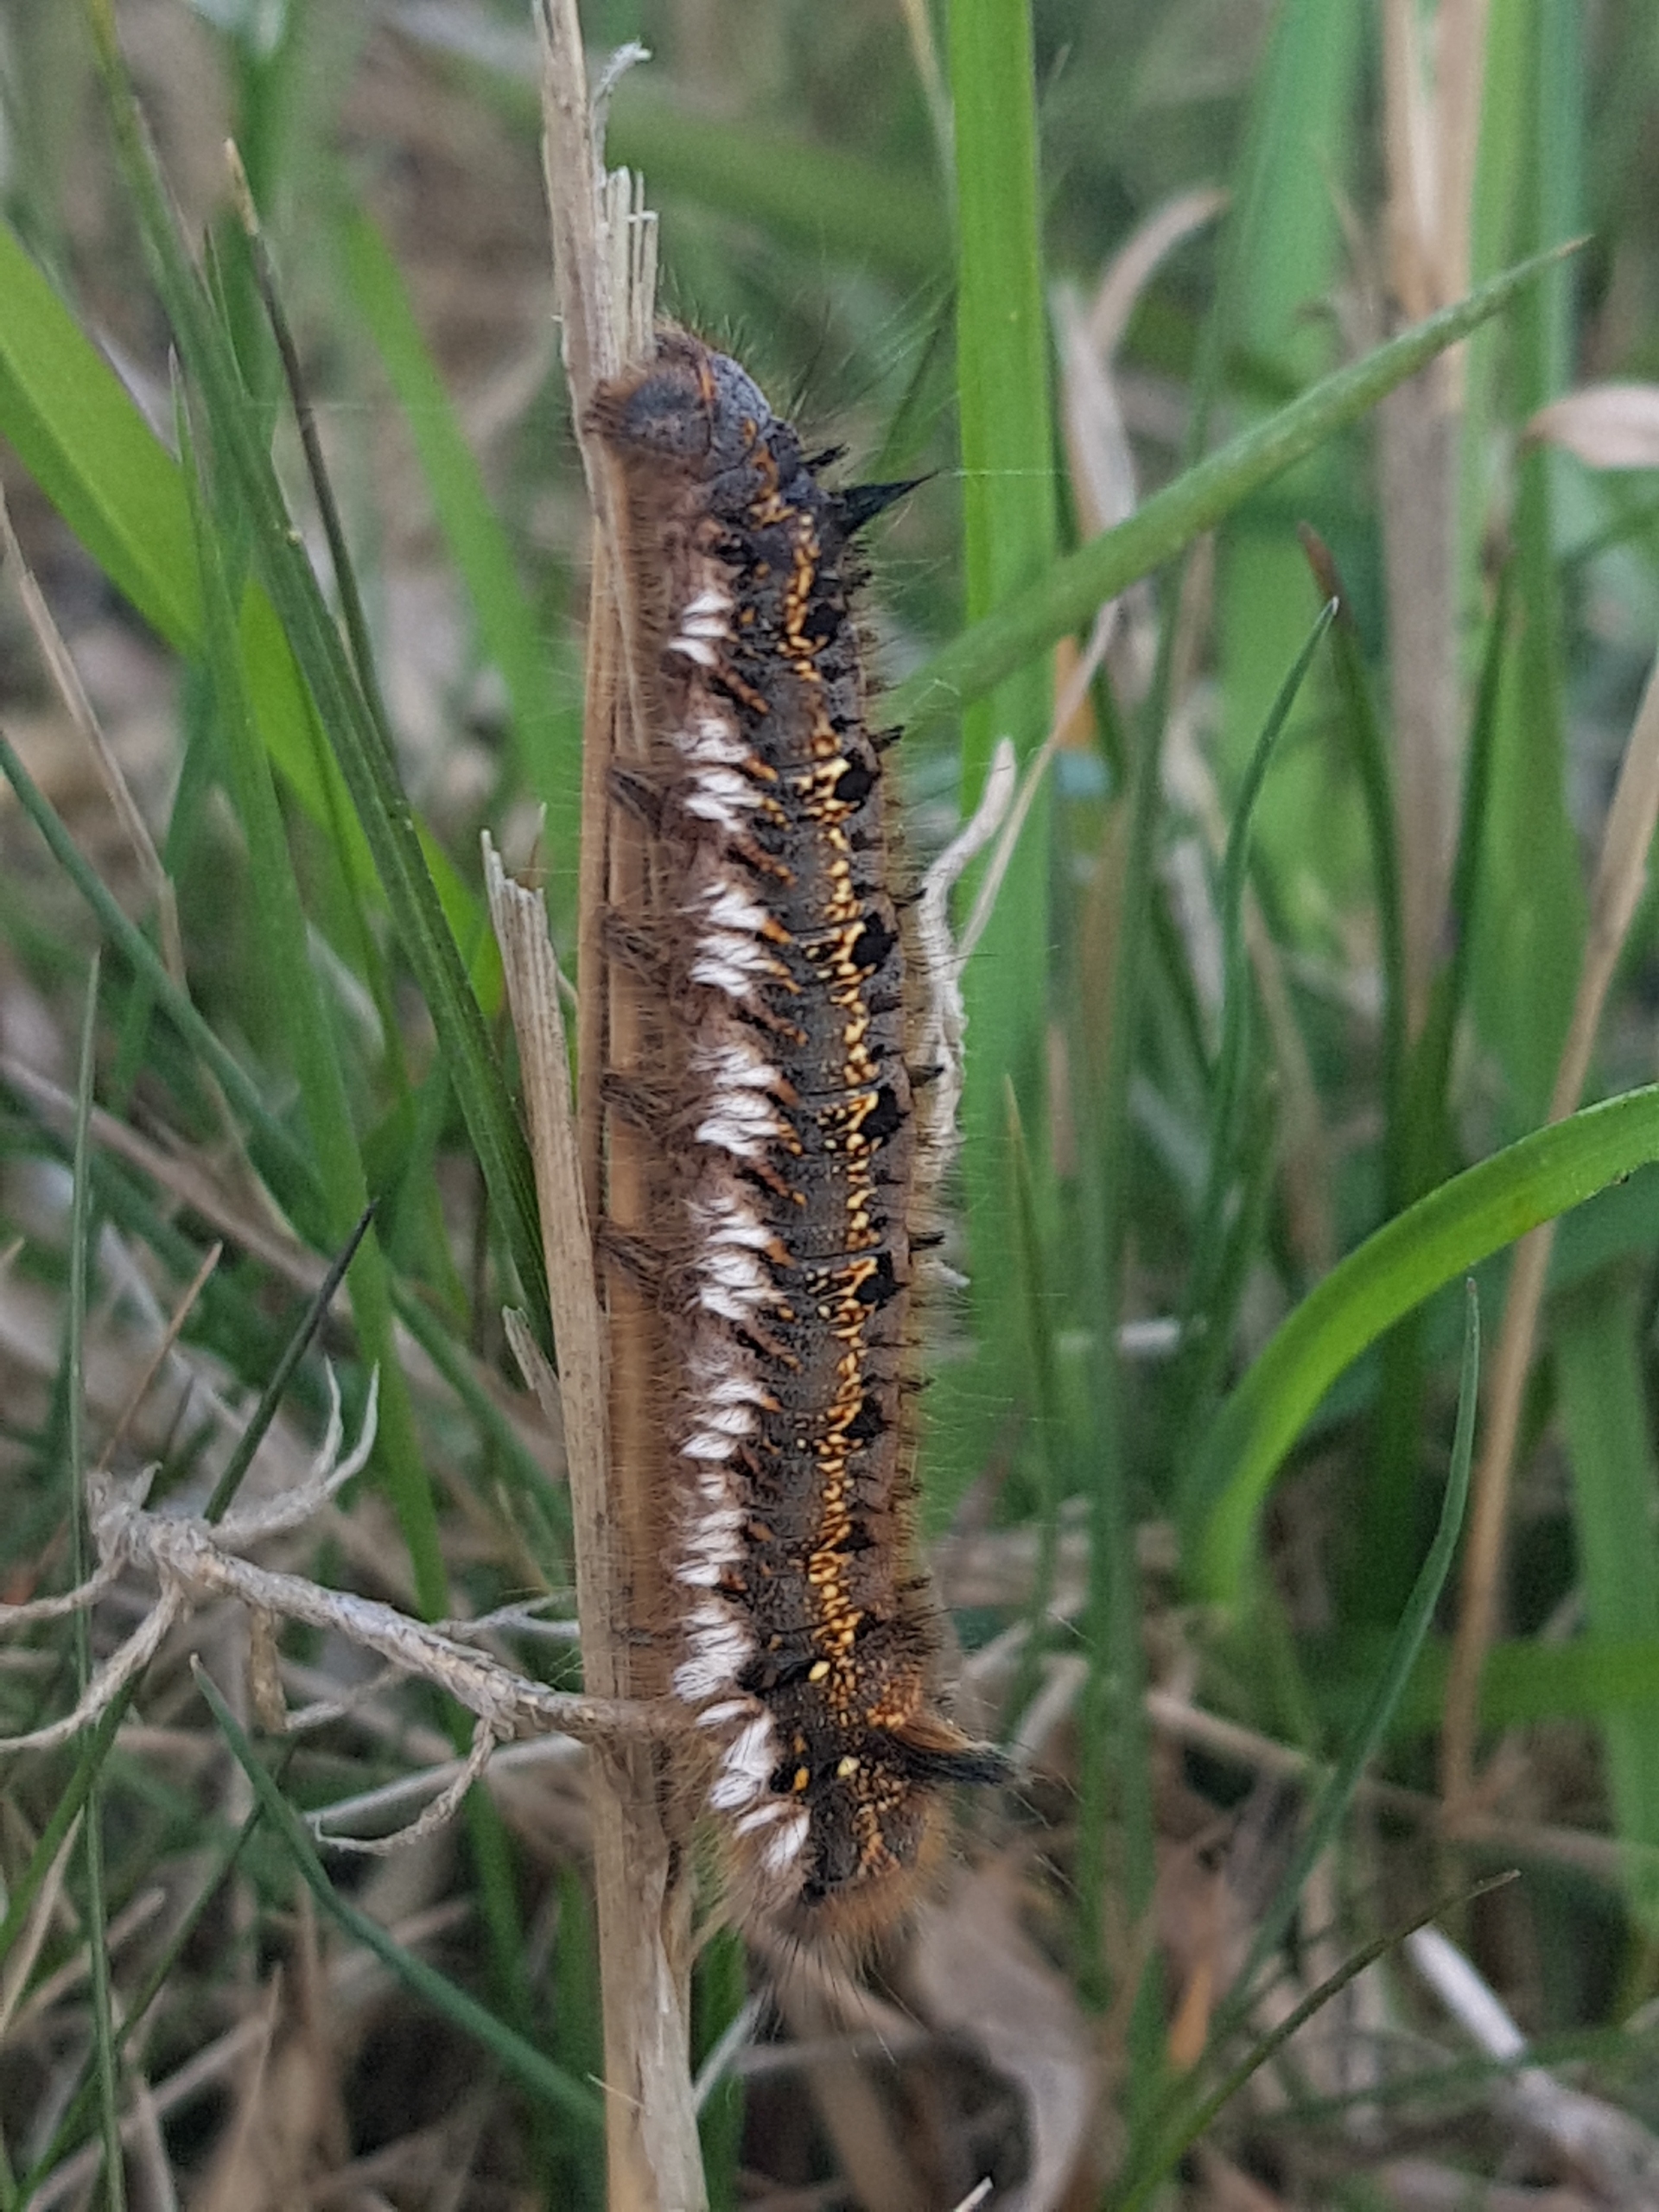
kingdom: Animalia
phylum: Arthropoda
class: Insecta
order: Lepidoptera
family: Lasiocampidae
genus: Euthrix
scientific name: Euthrix potatoria
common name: Græsspinder
